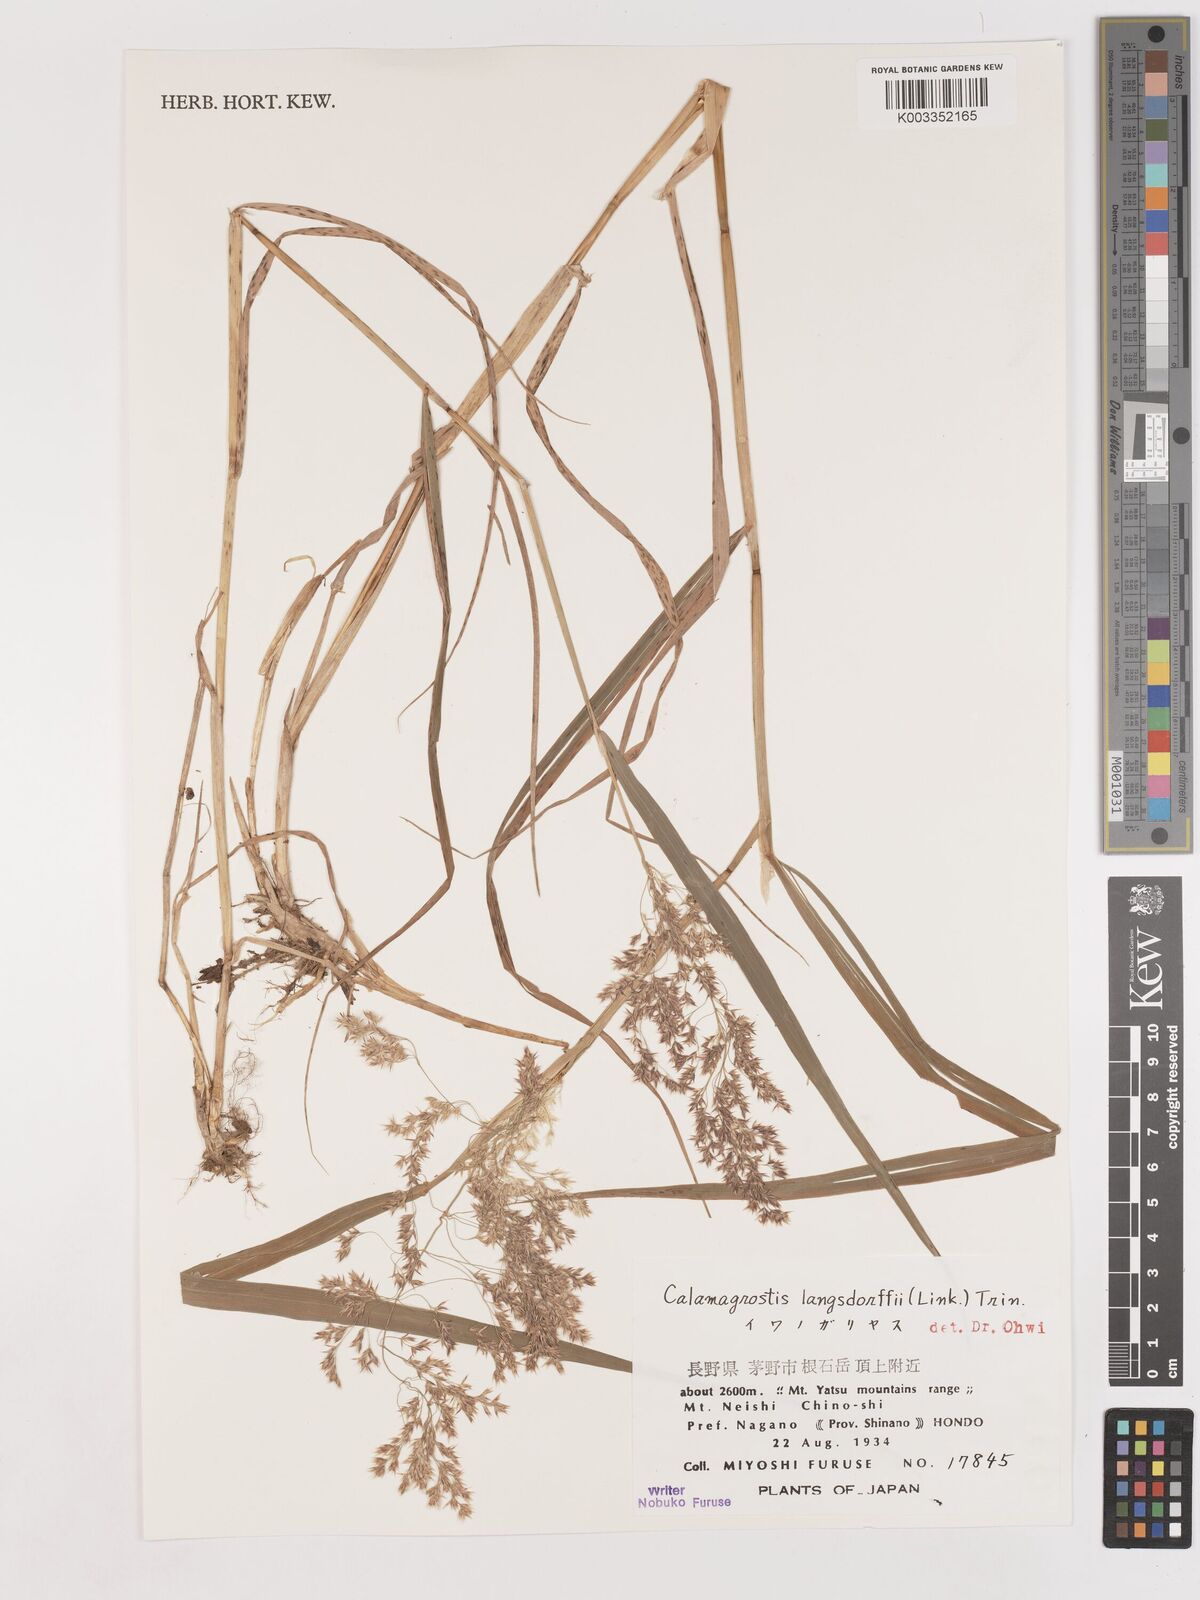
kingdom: Plantae
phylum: Tracheophyta
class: Liliopsida
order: Poales
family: Poaceae
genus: Calamagrostis
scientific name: Calamagrostis purpurea
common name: Scandinavian small-reed
